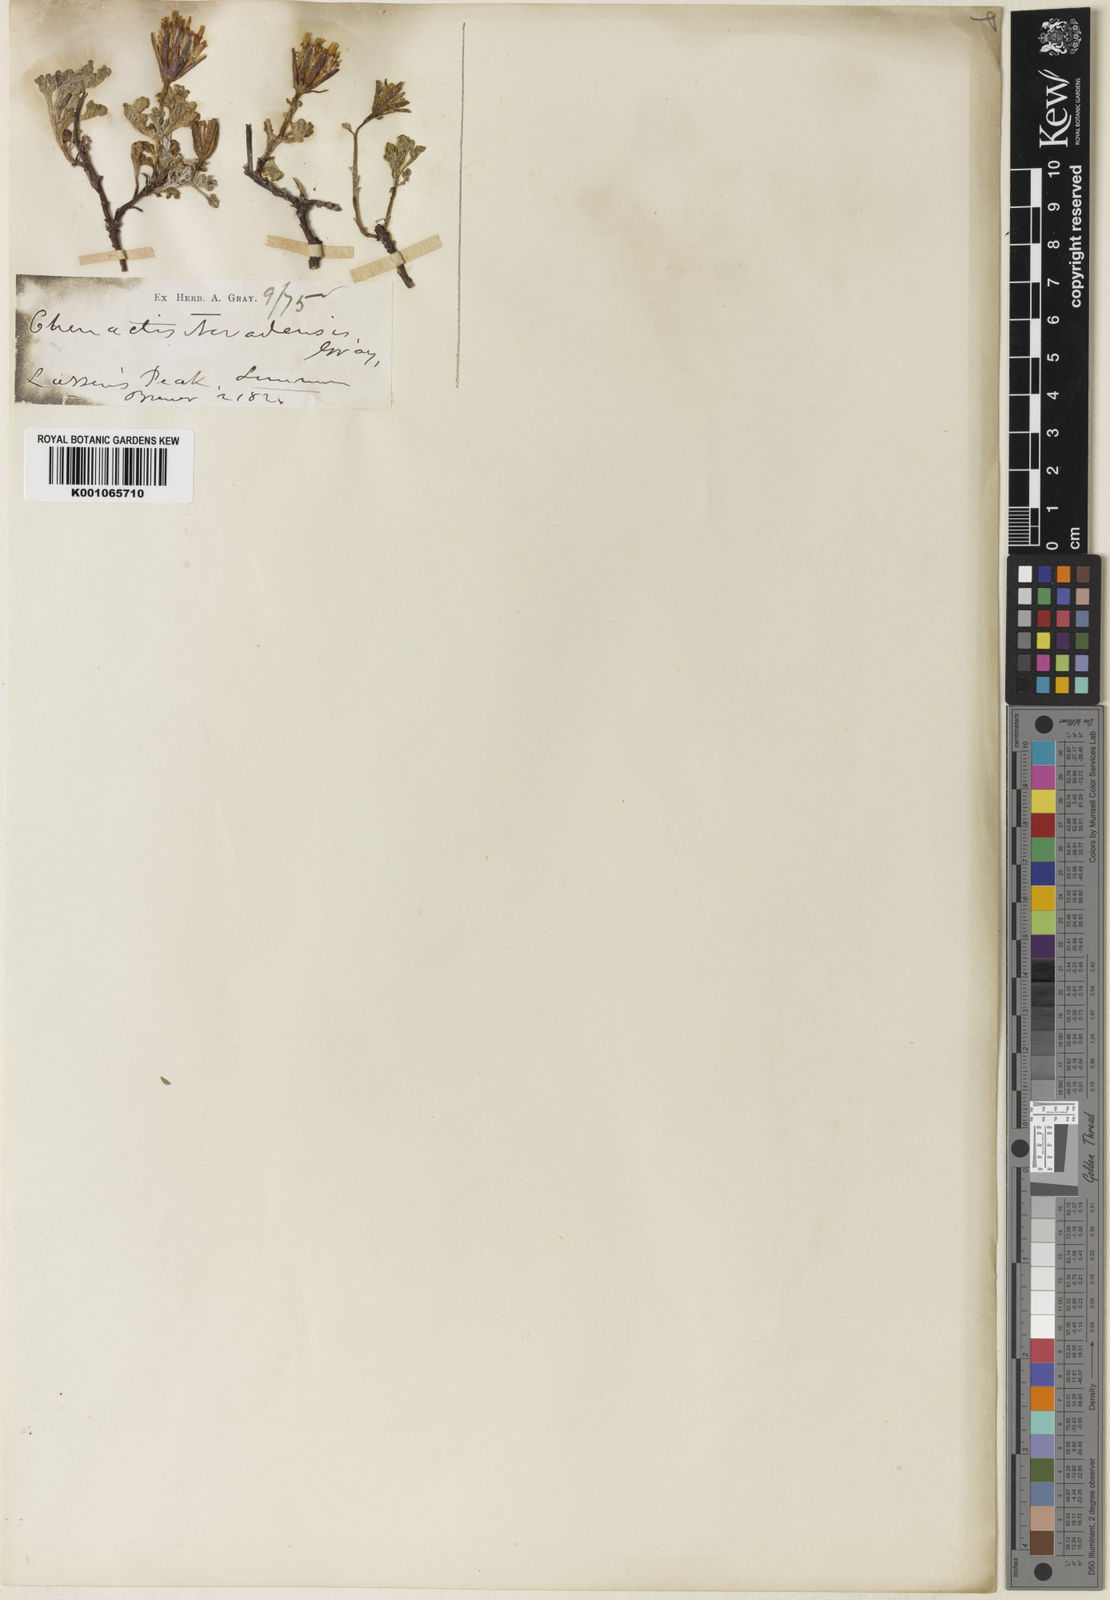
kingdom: Plantae
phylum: Tracheophyta
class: Magnoliopsida
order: Asterales
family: Asteraceae
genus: Chaenactis
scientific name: Chaenactis nevadensis
